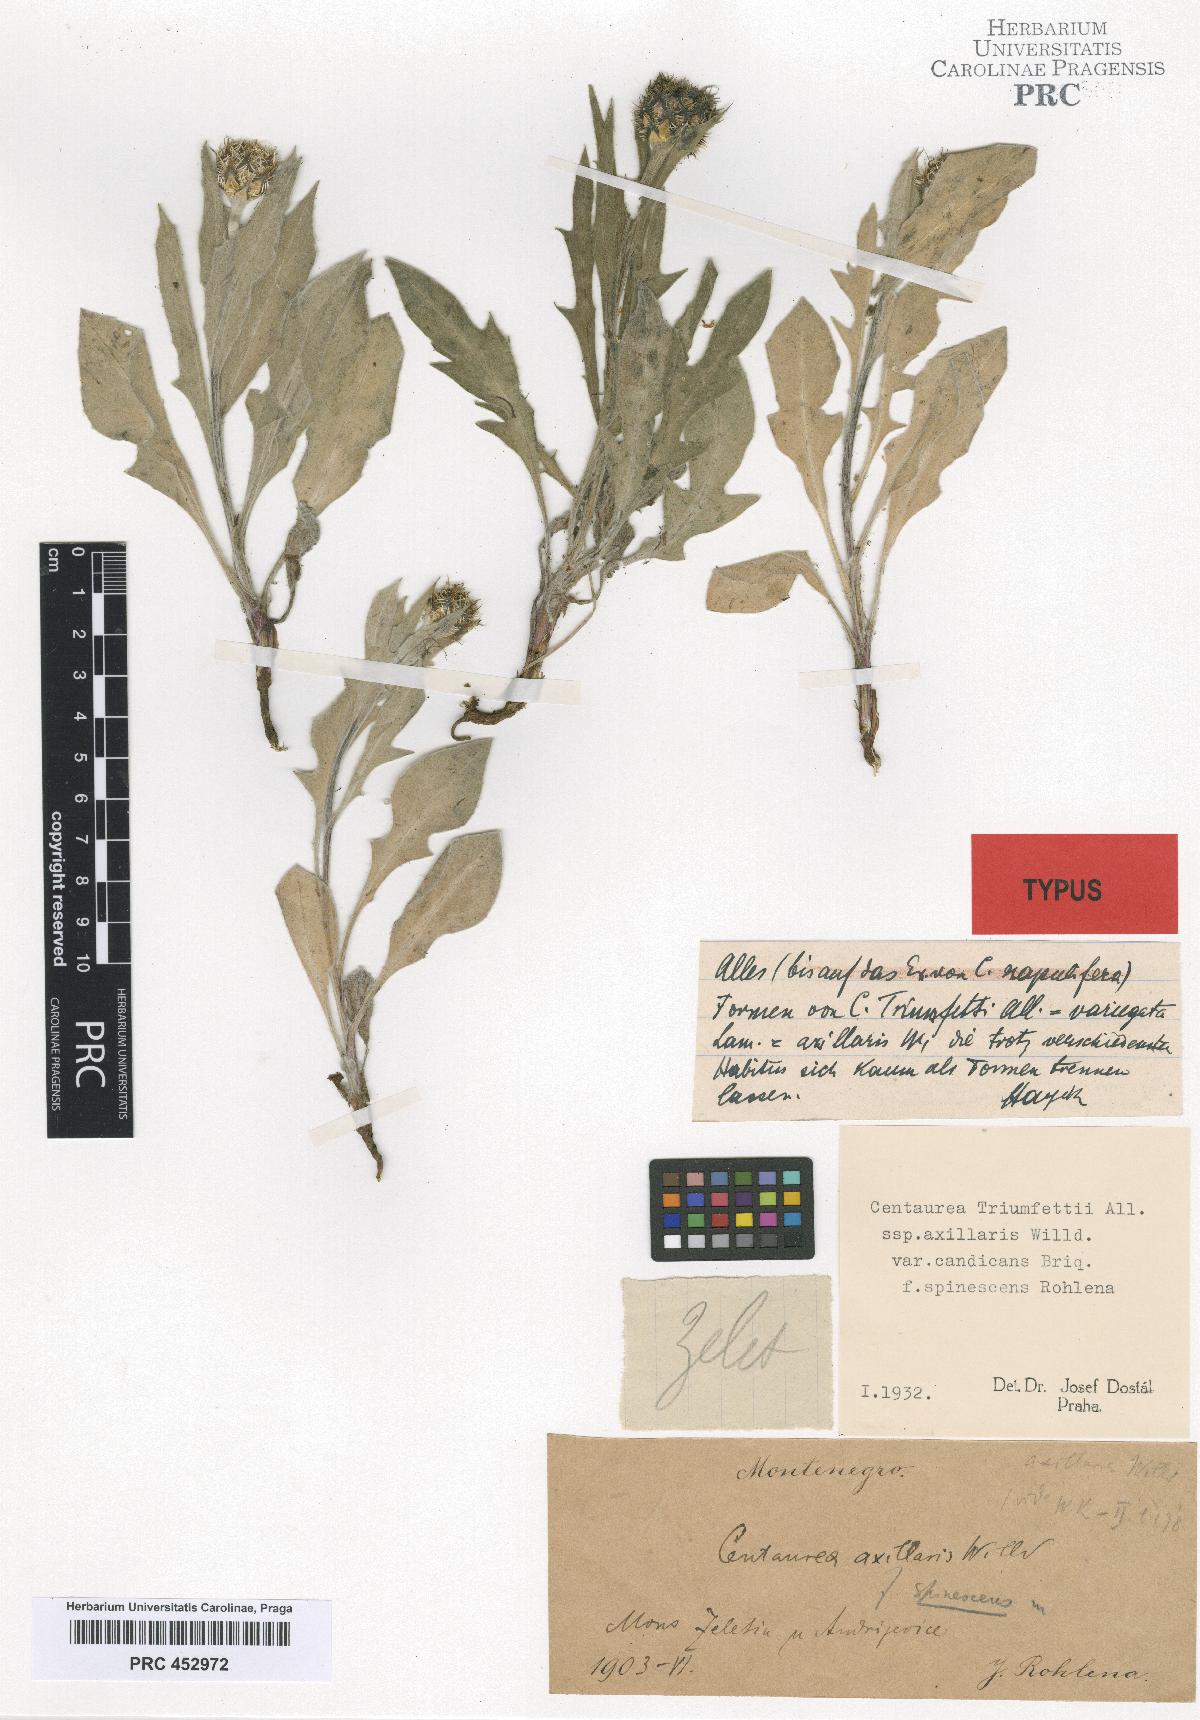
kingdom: Plantae
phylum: Tracheophyta
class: Magnoliopsida
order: Asterales
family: Asteraceae
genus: Centaurea
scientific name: Centaurea triumfettii
